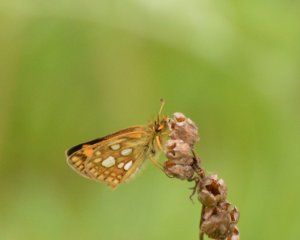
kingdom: Animalia
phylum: Arthropoda
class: Insecta
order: Lepidoptera
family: Hesperiidae
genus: Carterocephalus
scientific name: Carterocephalus palaemon
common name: Chequered Skipper
